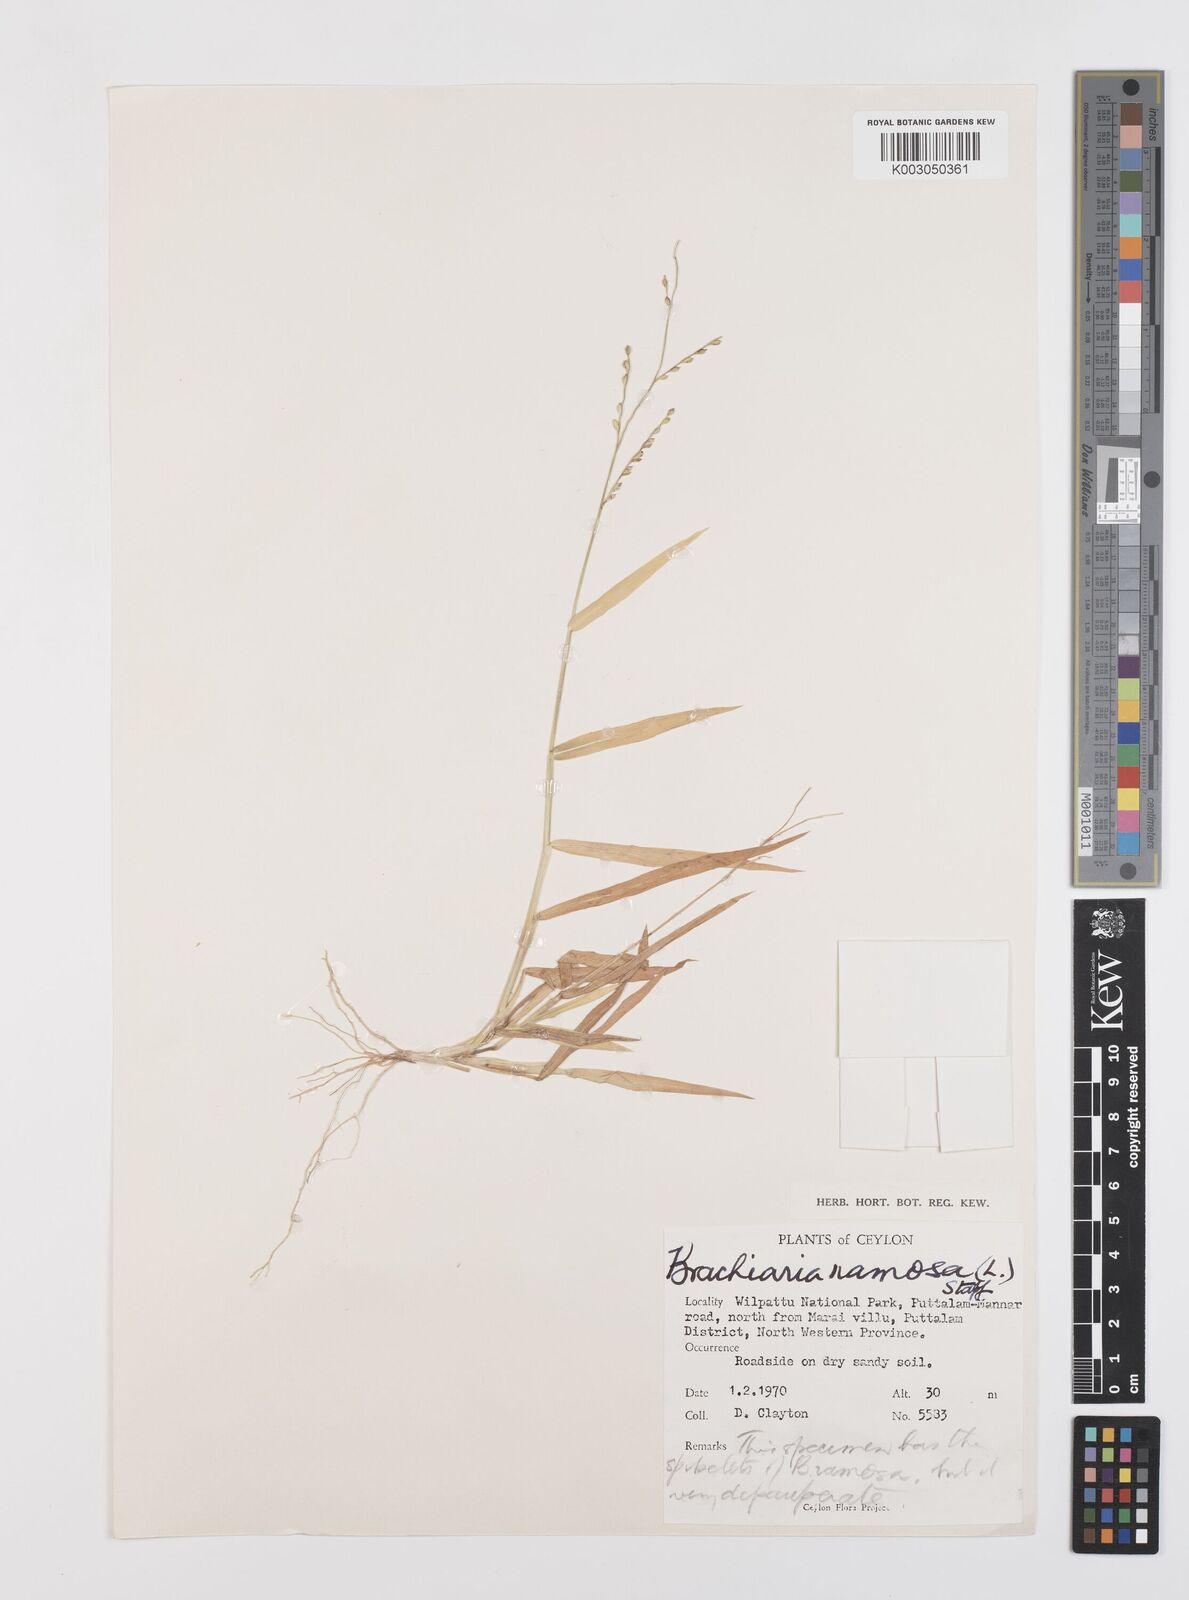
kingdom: Plantae
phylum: Tracheophyta
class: Liliopsida
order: Poales
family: Poaceae
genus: Urochloa
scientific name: Urochloa ramosa
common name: Browntop millet
